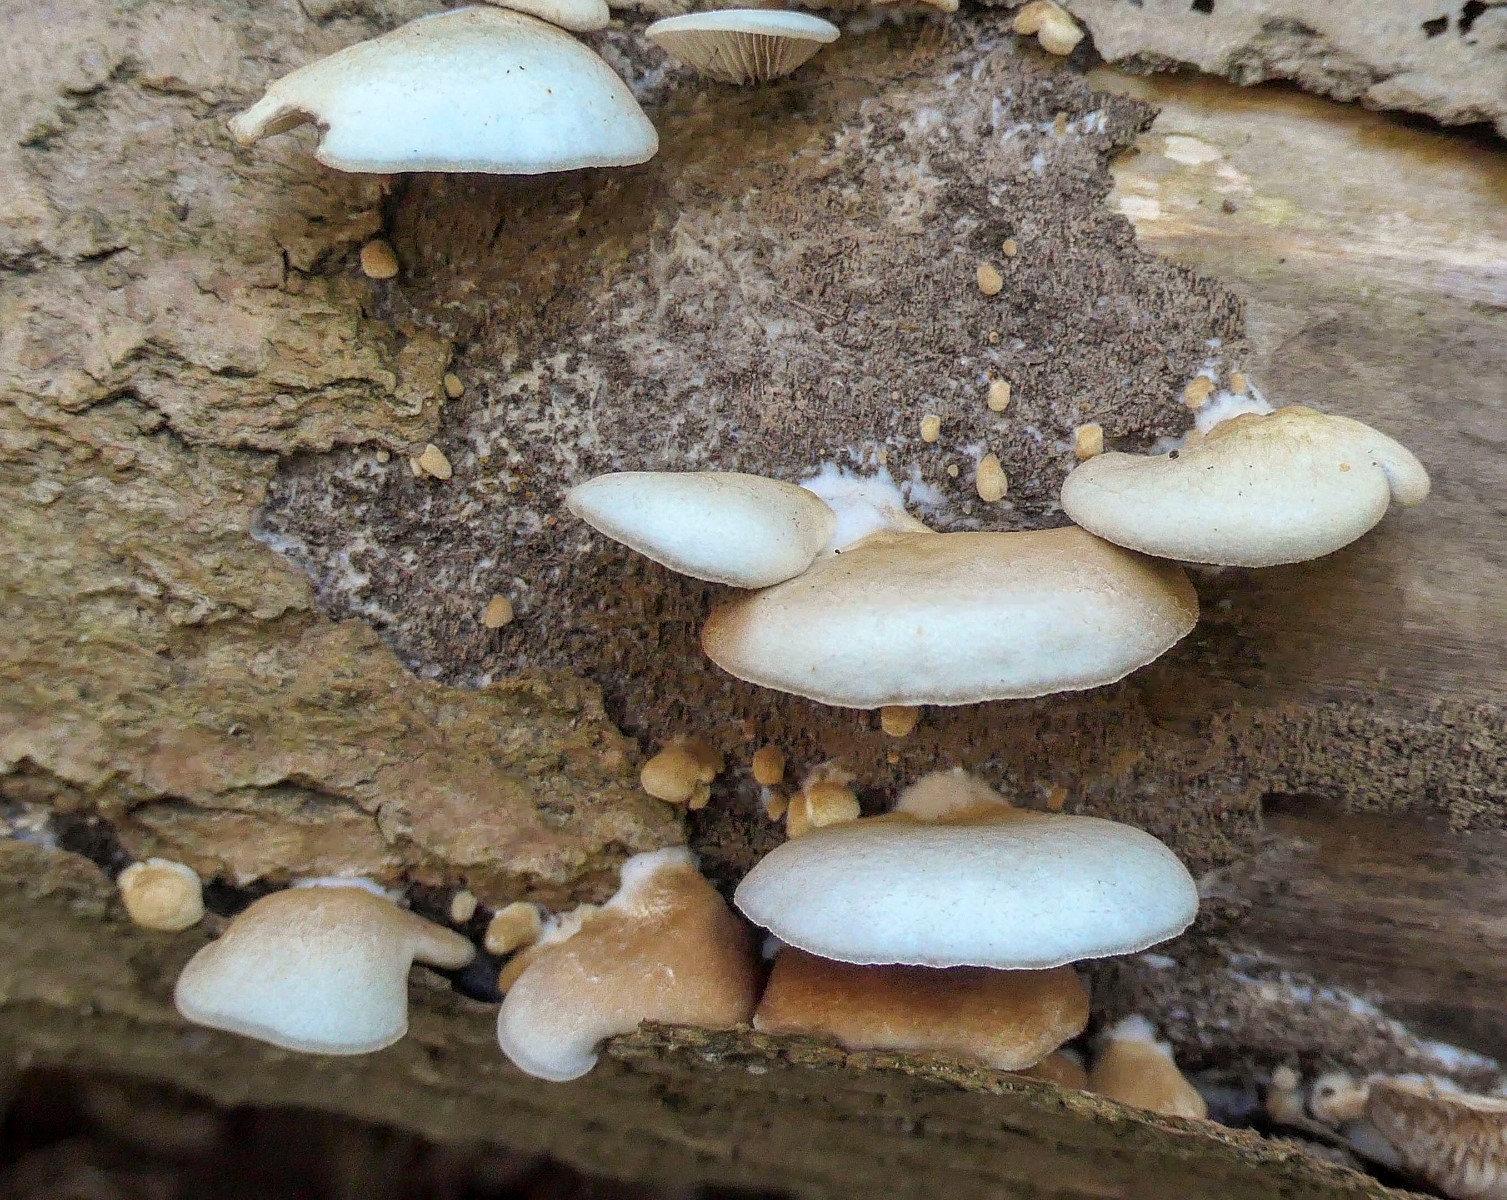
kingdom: Fungi
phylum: Basidiomycota
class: Agaricomycetes
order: Agaricales
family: Crepidotaceae
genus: Crepidotus
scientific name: Crepidotus mollis
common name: blød muslingesvamp
